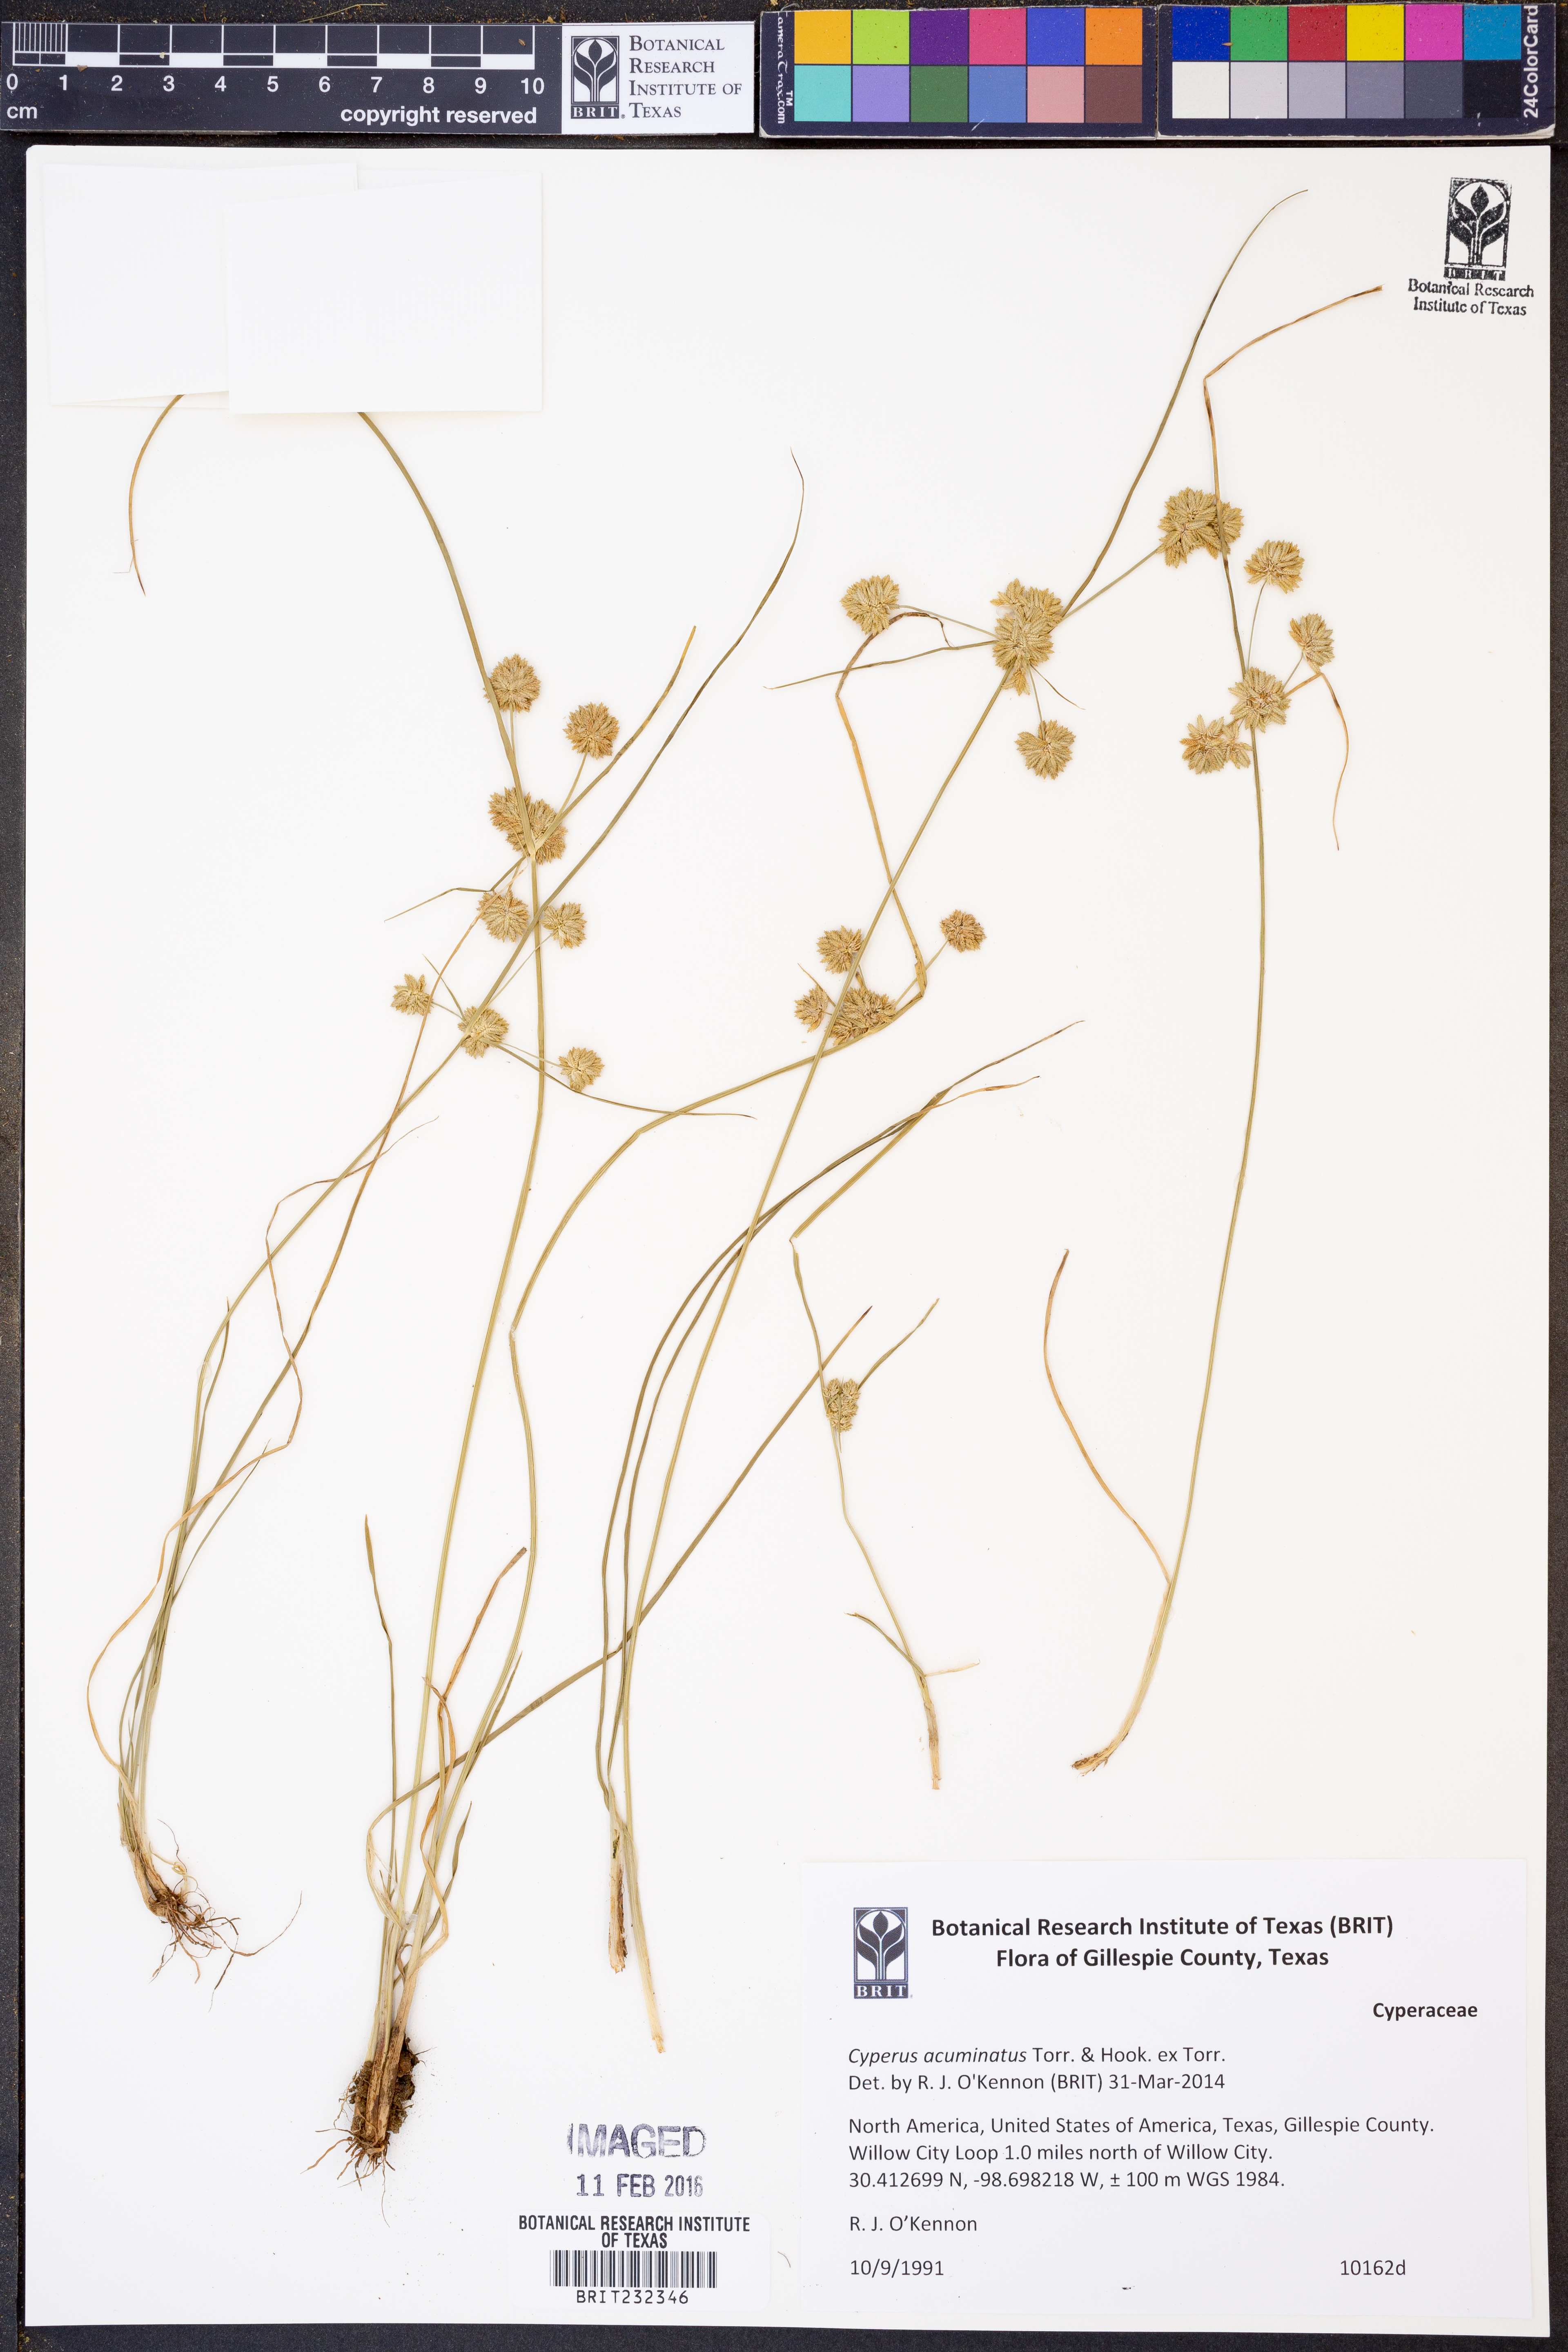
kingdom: Plantae
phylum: Tracheophyta
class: Liliopsida
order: Poales
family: Cyperaceae
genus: Cyperus
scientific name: Cyperus acuminatus
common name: Short-pointed cyperus
